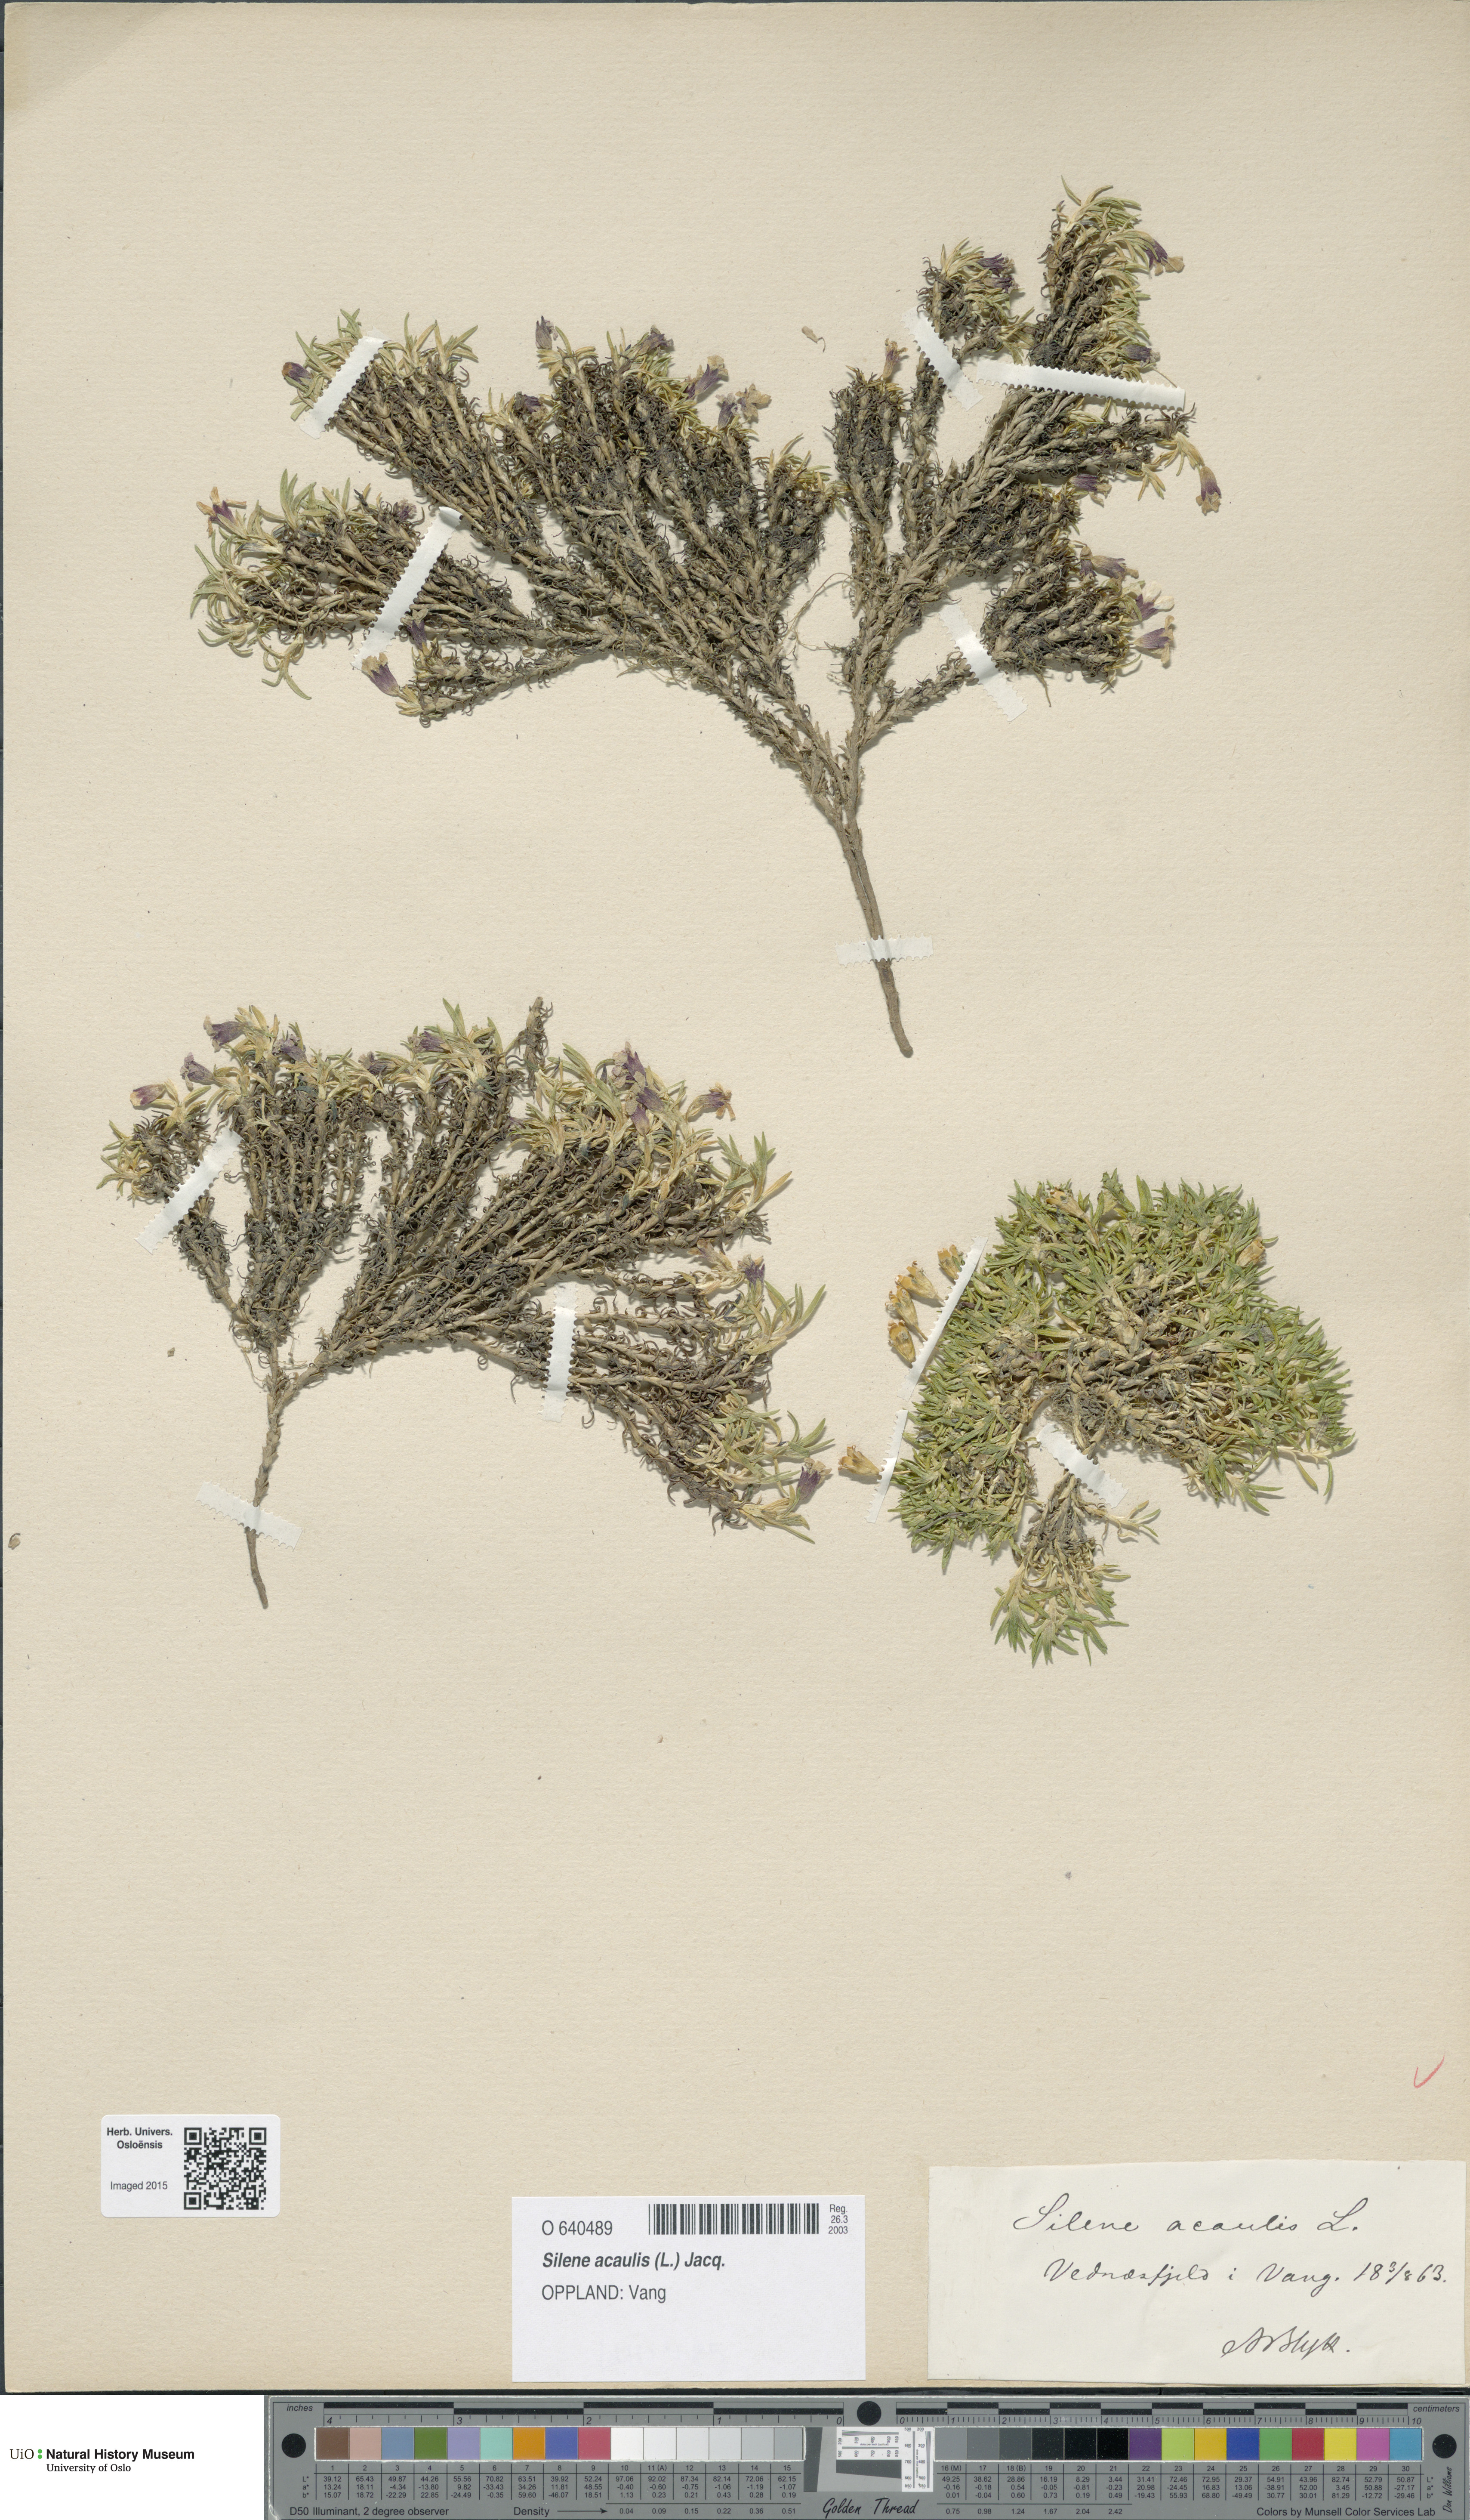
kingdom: Plantae
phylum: Tracheophyta
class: Magnoliopsida
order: Caryophyllales
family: Caryophyllaceae
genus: Silene
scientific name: Silene acaulis
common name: Moss campion
